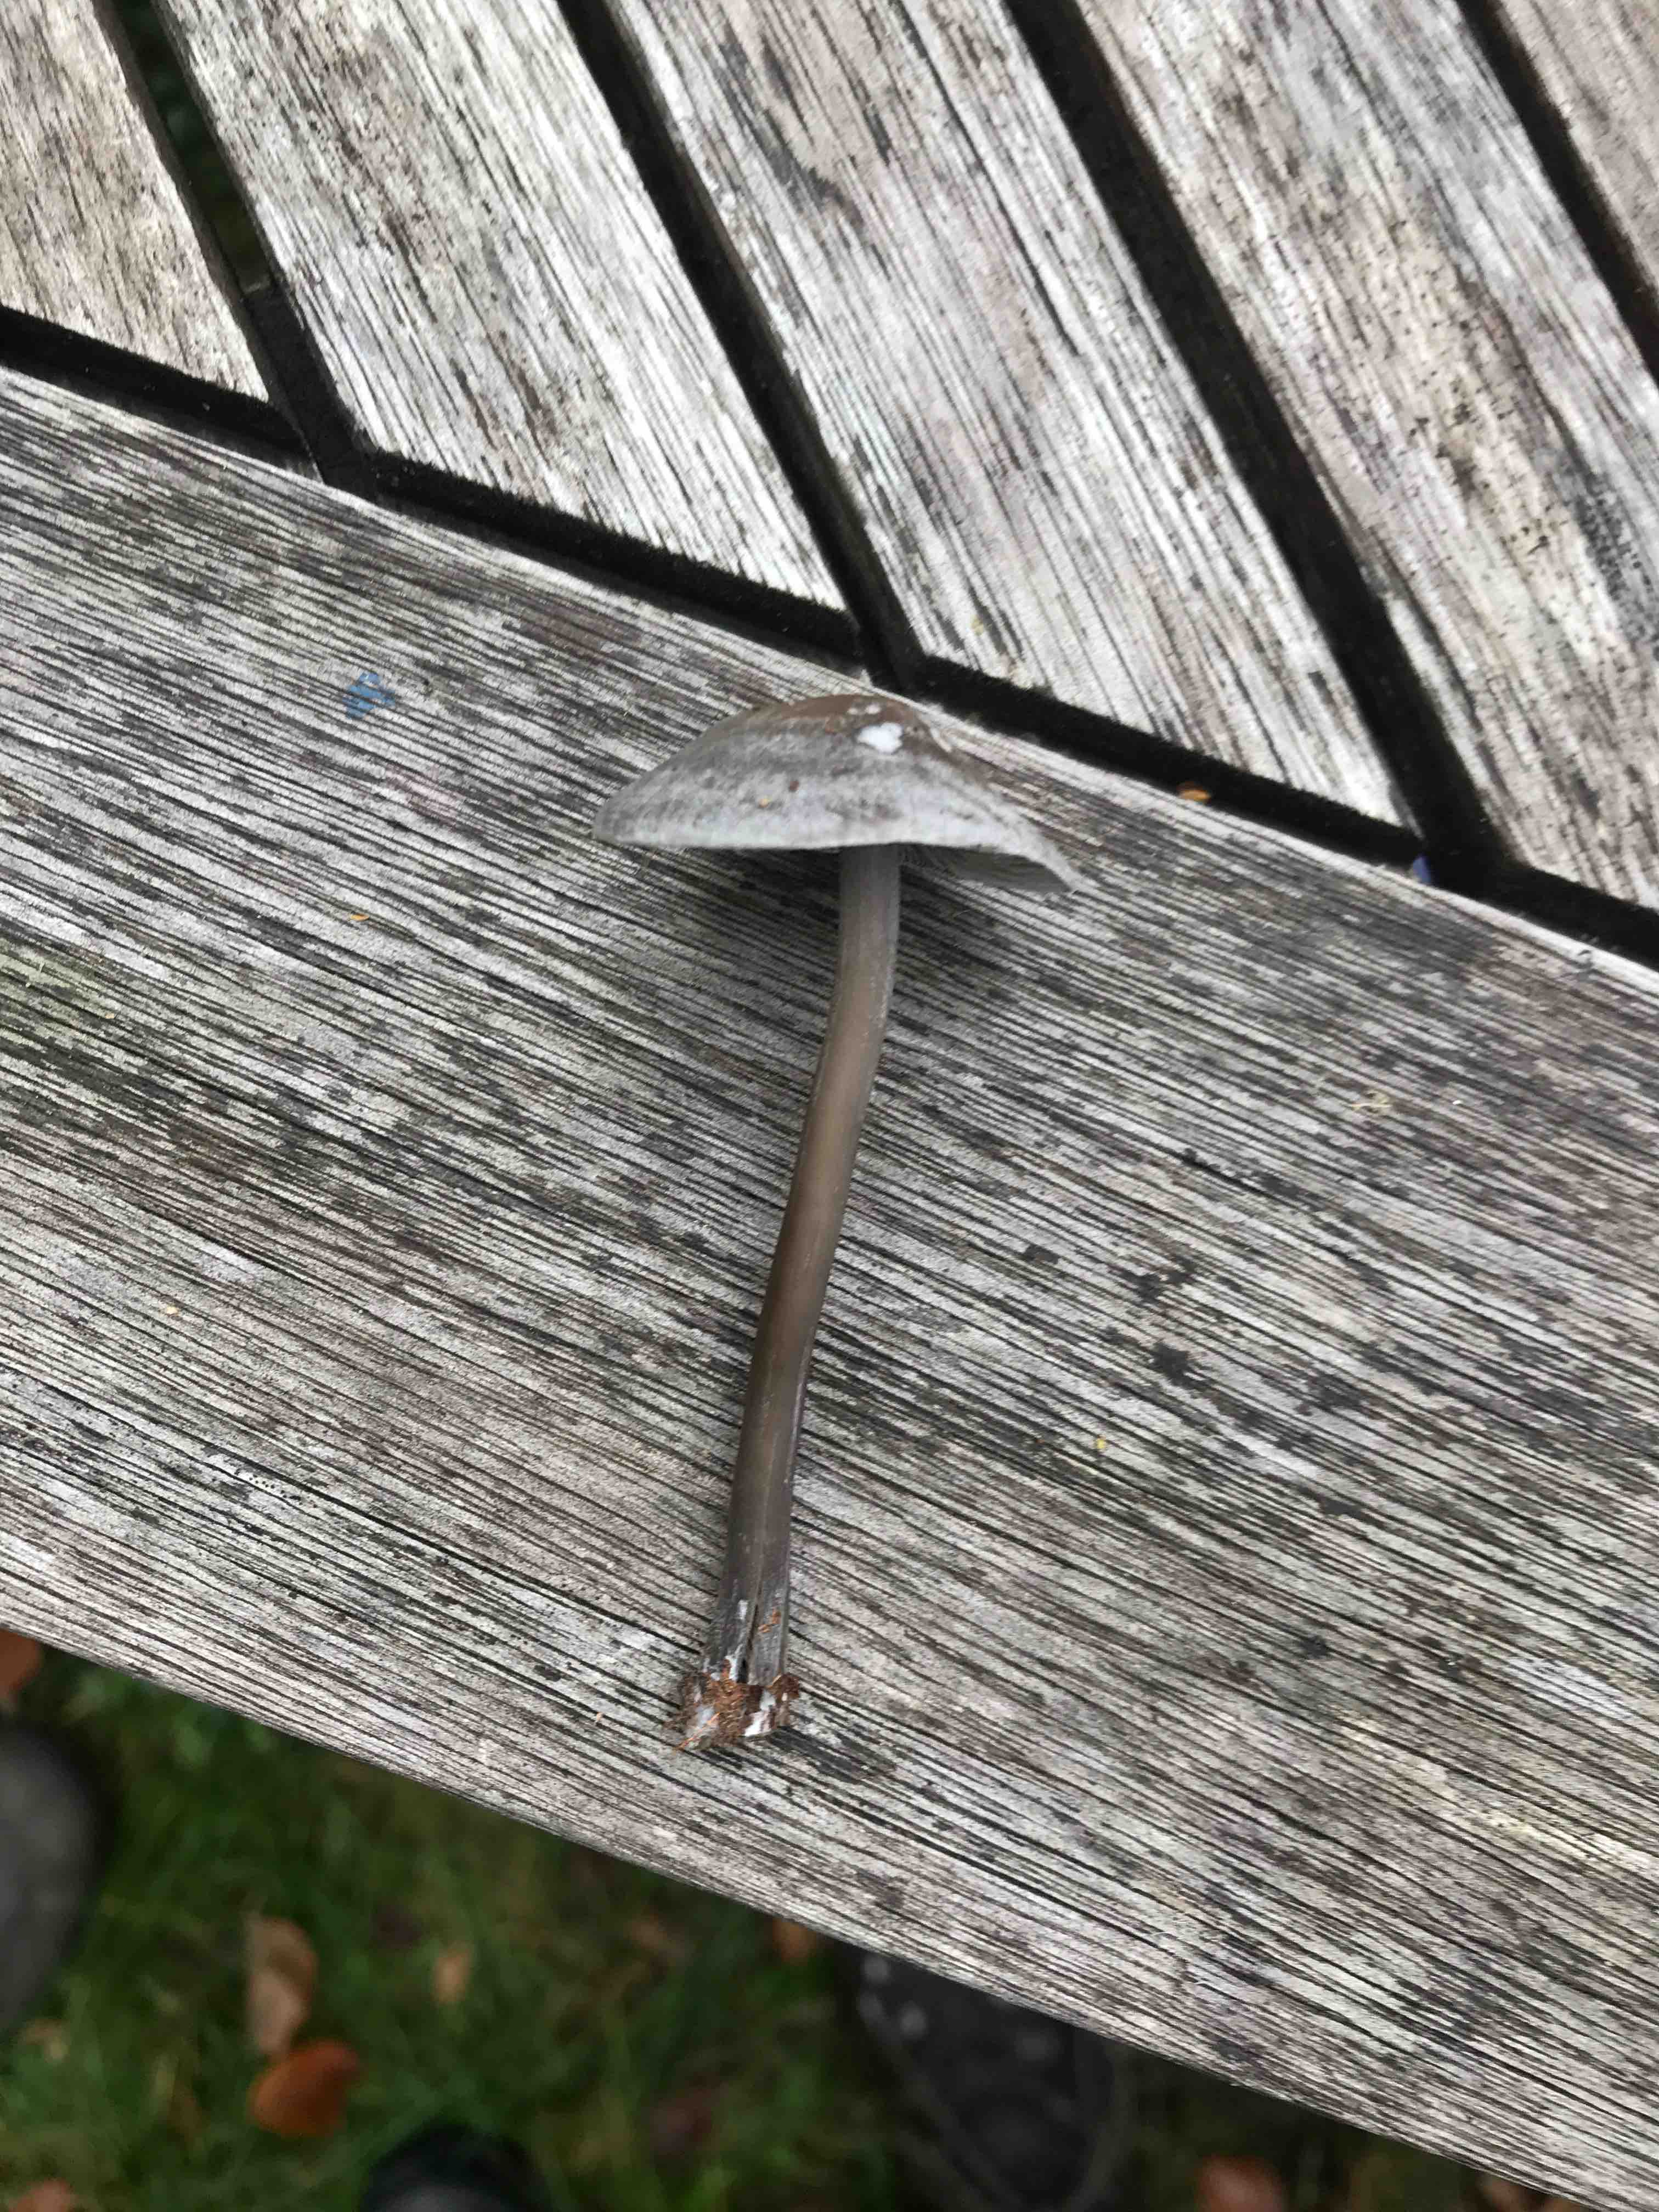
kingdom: Fungi
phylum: Basidiomycota
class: Agaricomycetes
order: Agaricales
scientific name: Agaricales
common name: champignonordenen
